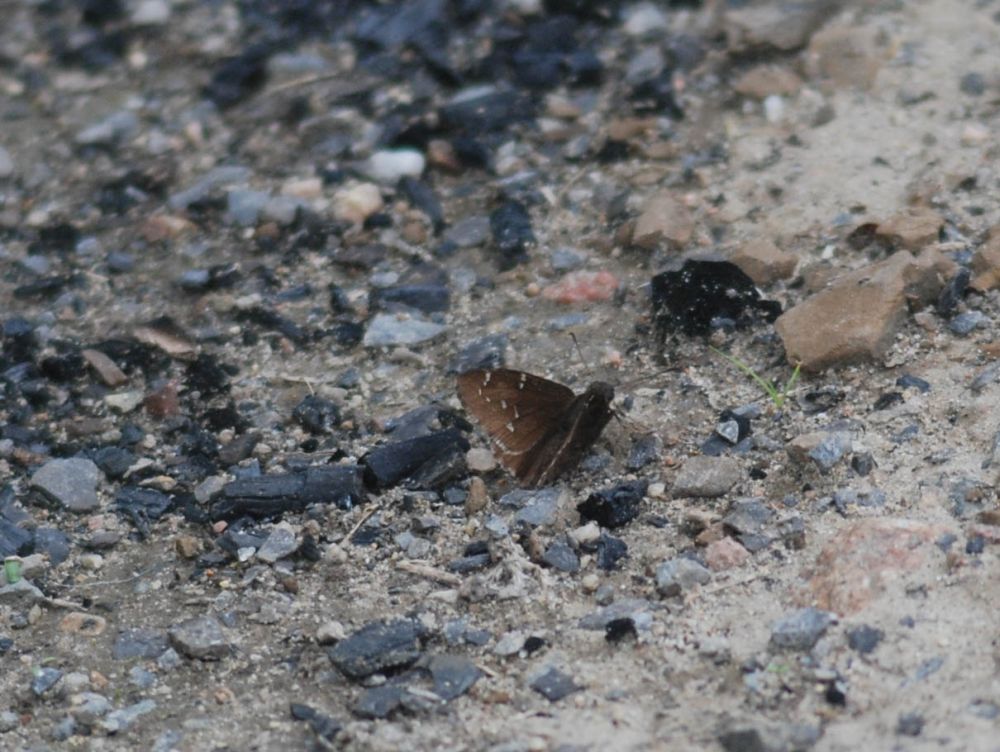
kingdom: Animalia
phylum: Arthropoda
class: Insecta
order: Lepidoptera
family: Hesperiidae
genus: Mastor
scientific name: Mastor hegon
